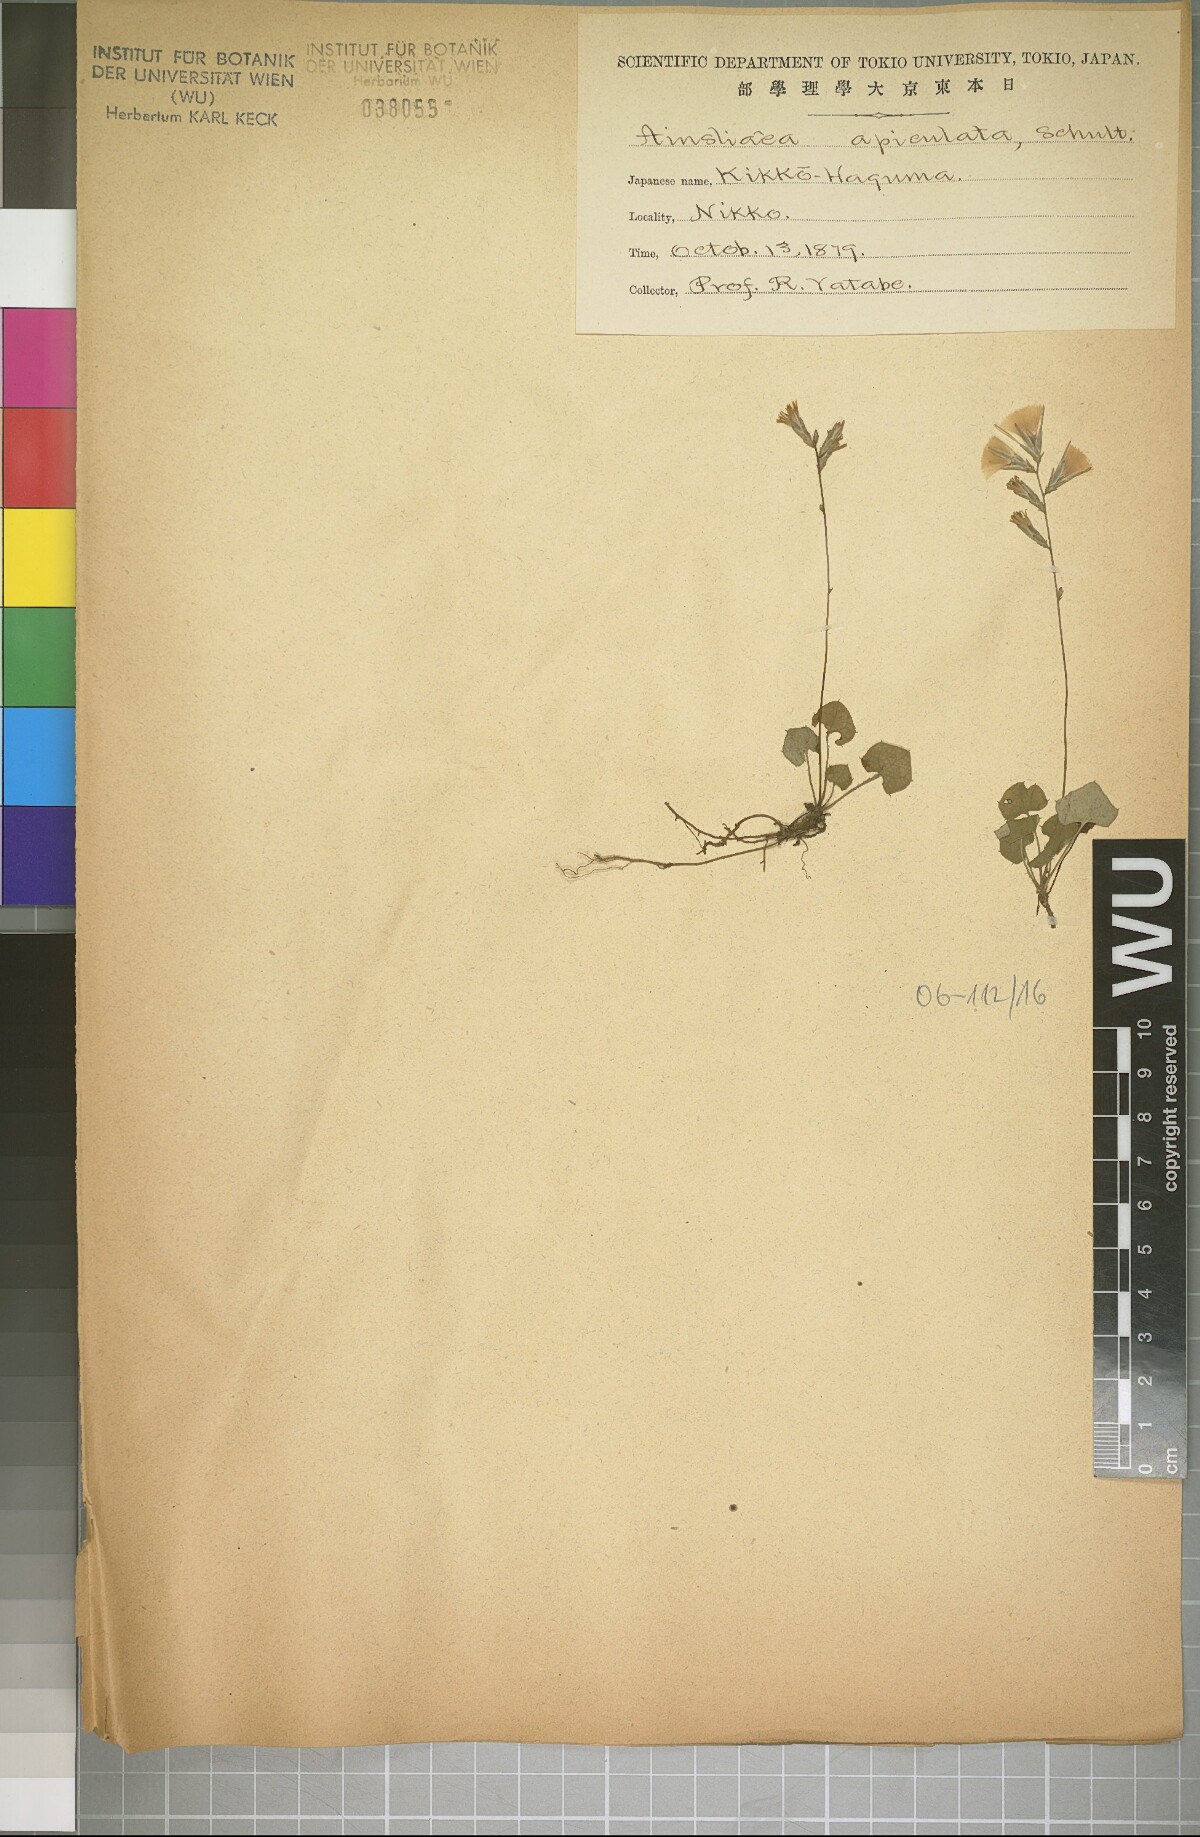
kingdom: Plantae
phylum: Tracheophyta
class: Magnoliopsida
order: Asterales
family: Asteraceae
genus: Ainsliaea
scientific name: Ainsliaea apiculata
